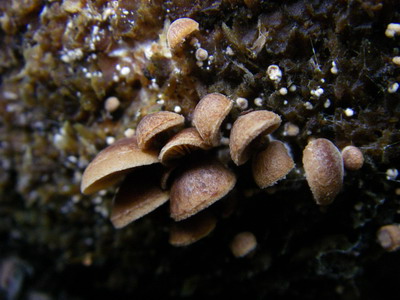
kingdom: Fungi
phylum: Basidiomycota
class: Agaricomycetes
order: Agaricales
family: Strophariaceae
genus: Deconica
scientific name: Deconica horizontalis
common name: ved-stråhat
